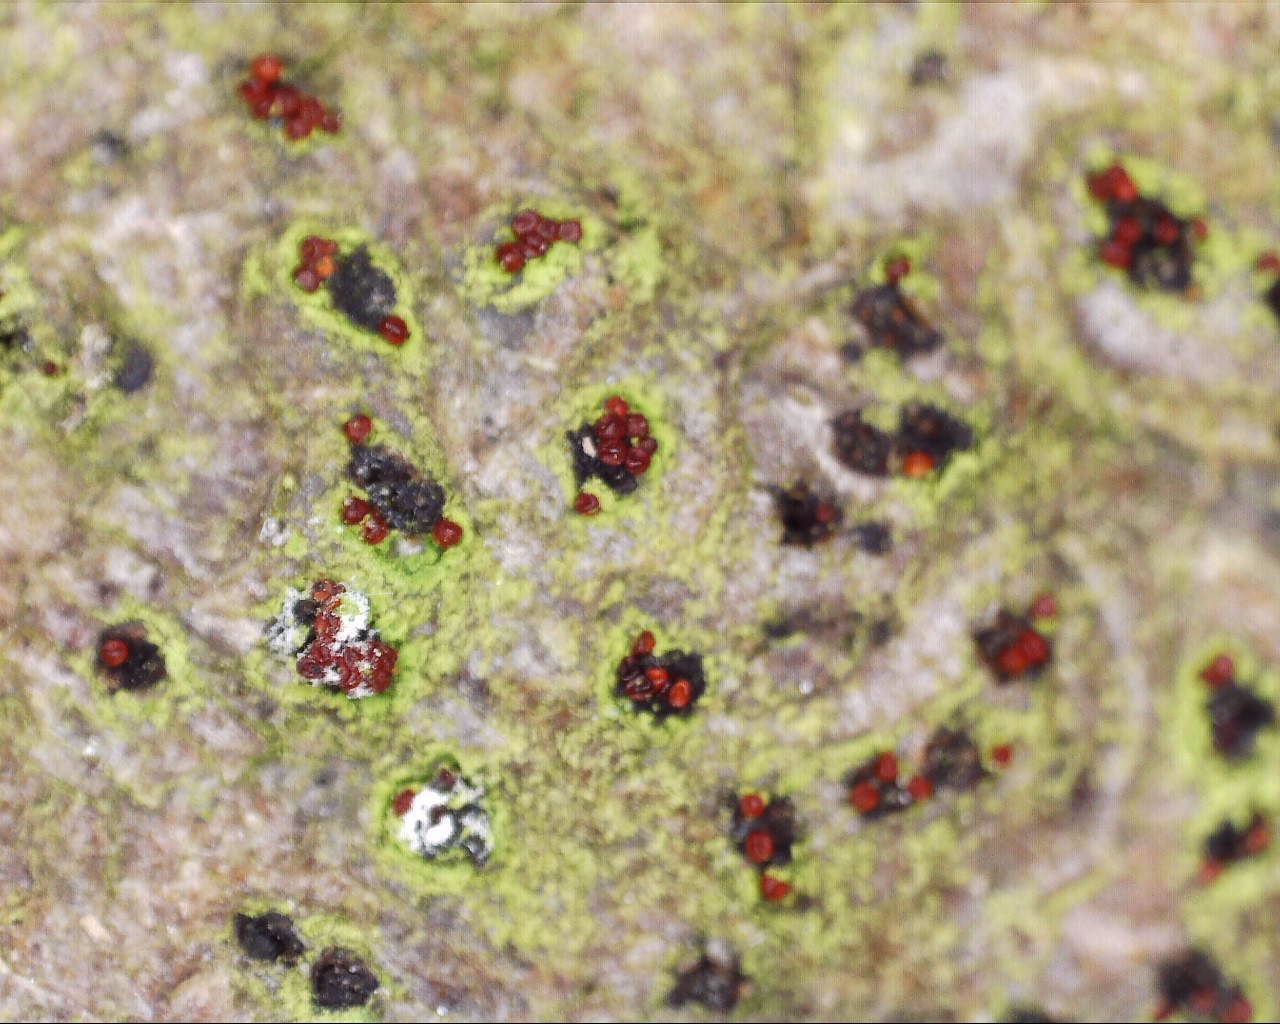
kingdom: Fungi
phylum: Ascomycota
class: Sordariomycetes
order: Hypocreales
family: Nectriaceae
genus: Dialonectria
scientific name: Dialonectria quaternatae
